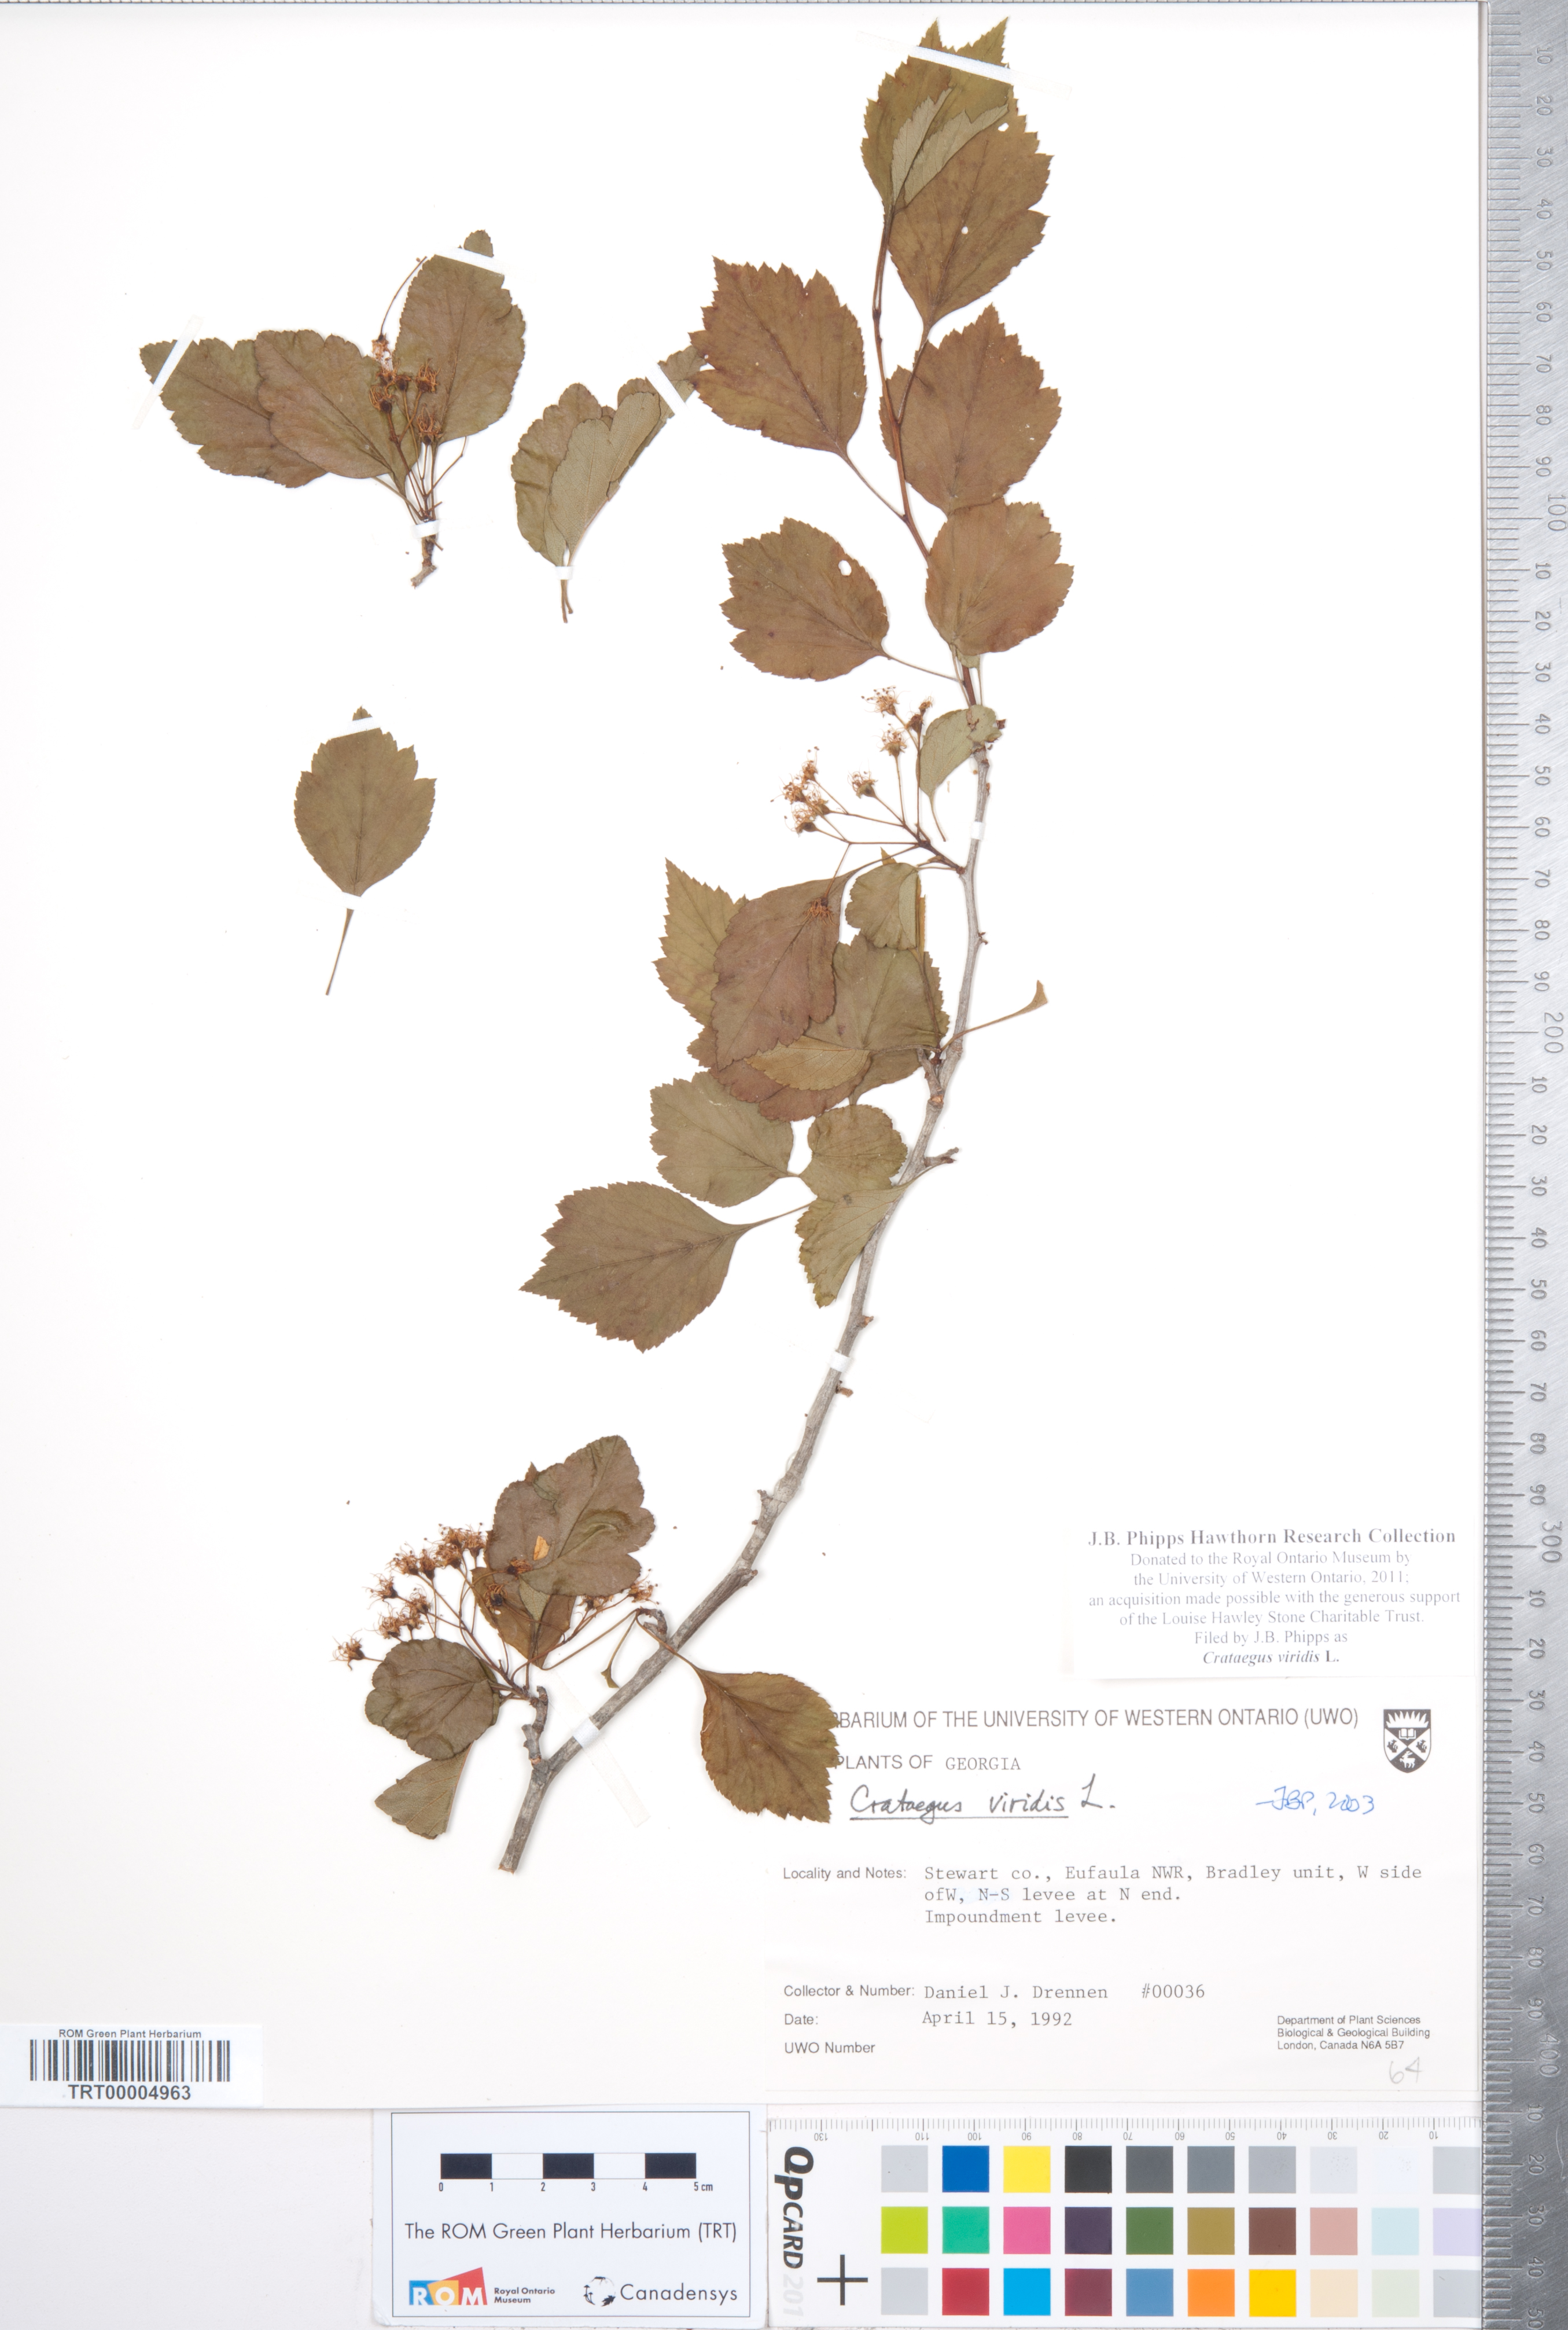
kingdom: Plantae
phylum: Tracheophyta
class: Magnoliopsida
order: Rosales
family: Rosaceae
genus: Crataegus
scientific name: Crataegus viridis
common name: Southernthorn
